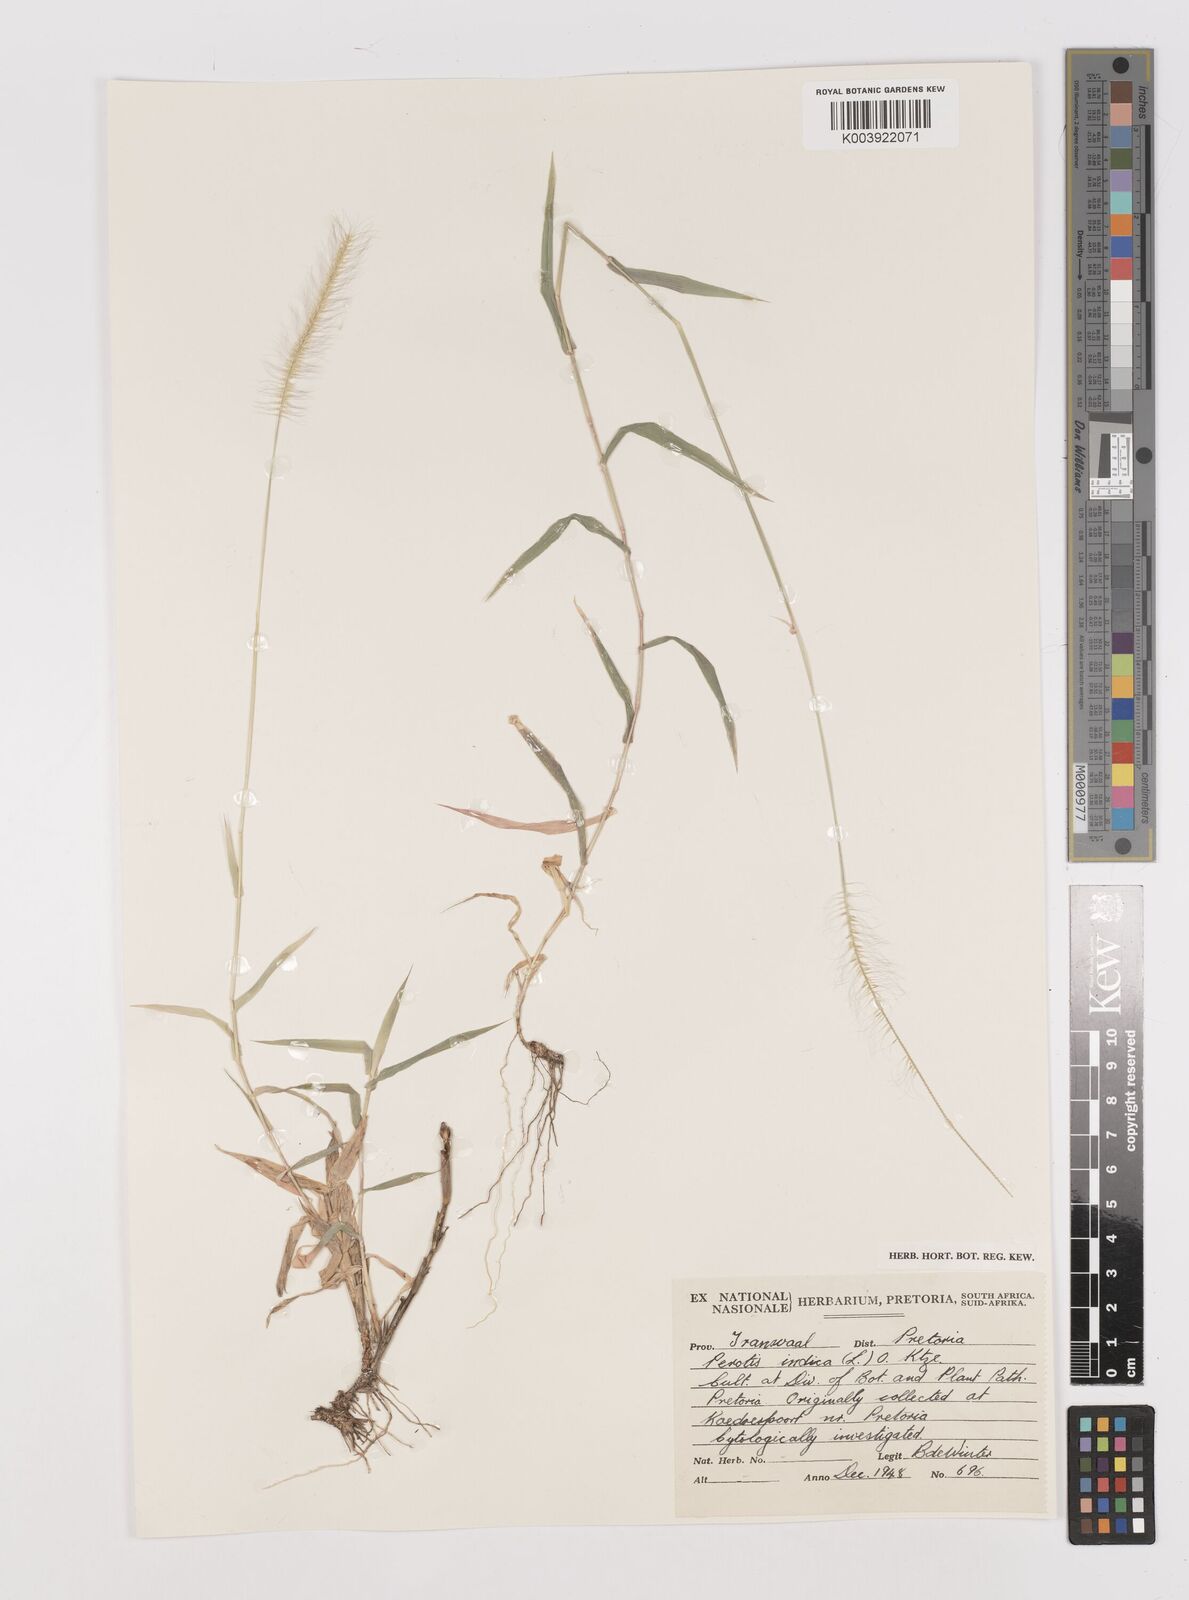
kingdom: Plantae
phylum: Tracheophyta
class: Liliopsida
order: Poales
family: Poaceae
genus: Perotis
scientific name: Perotis patens
